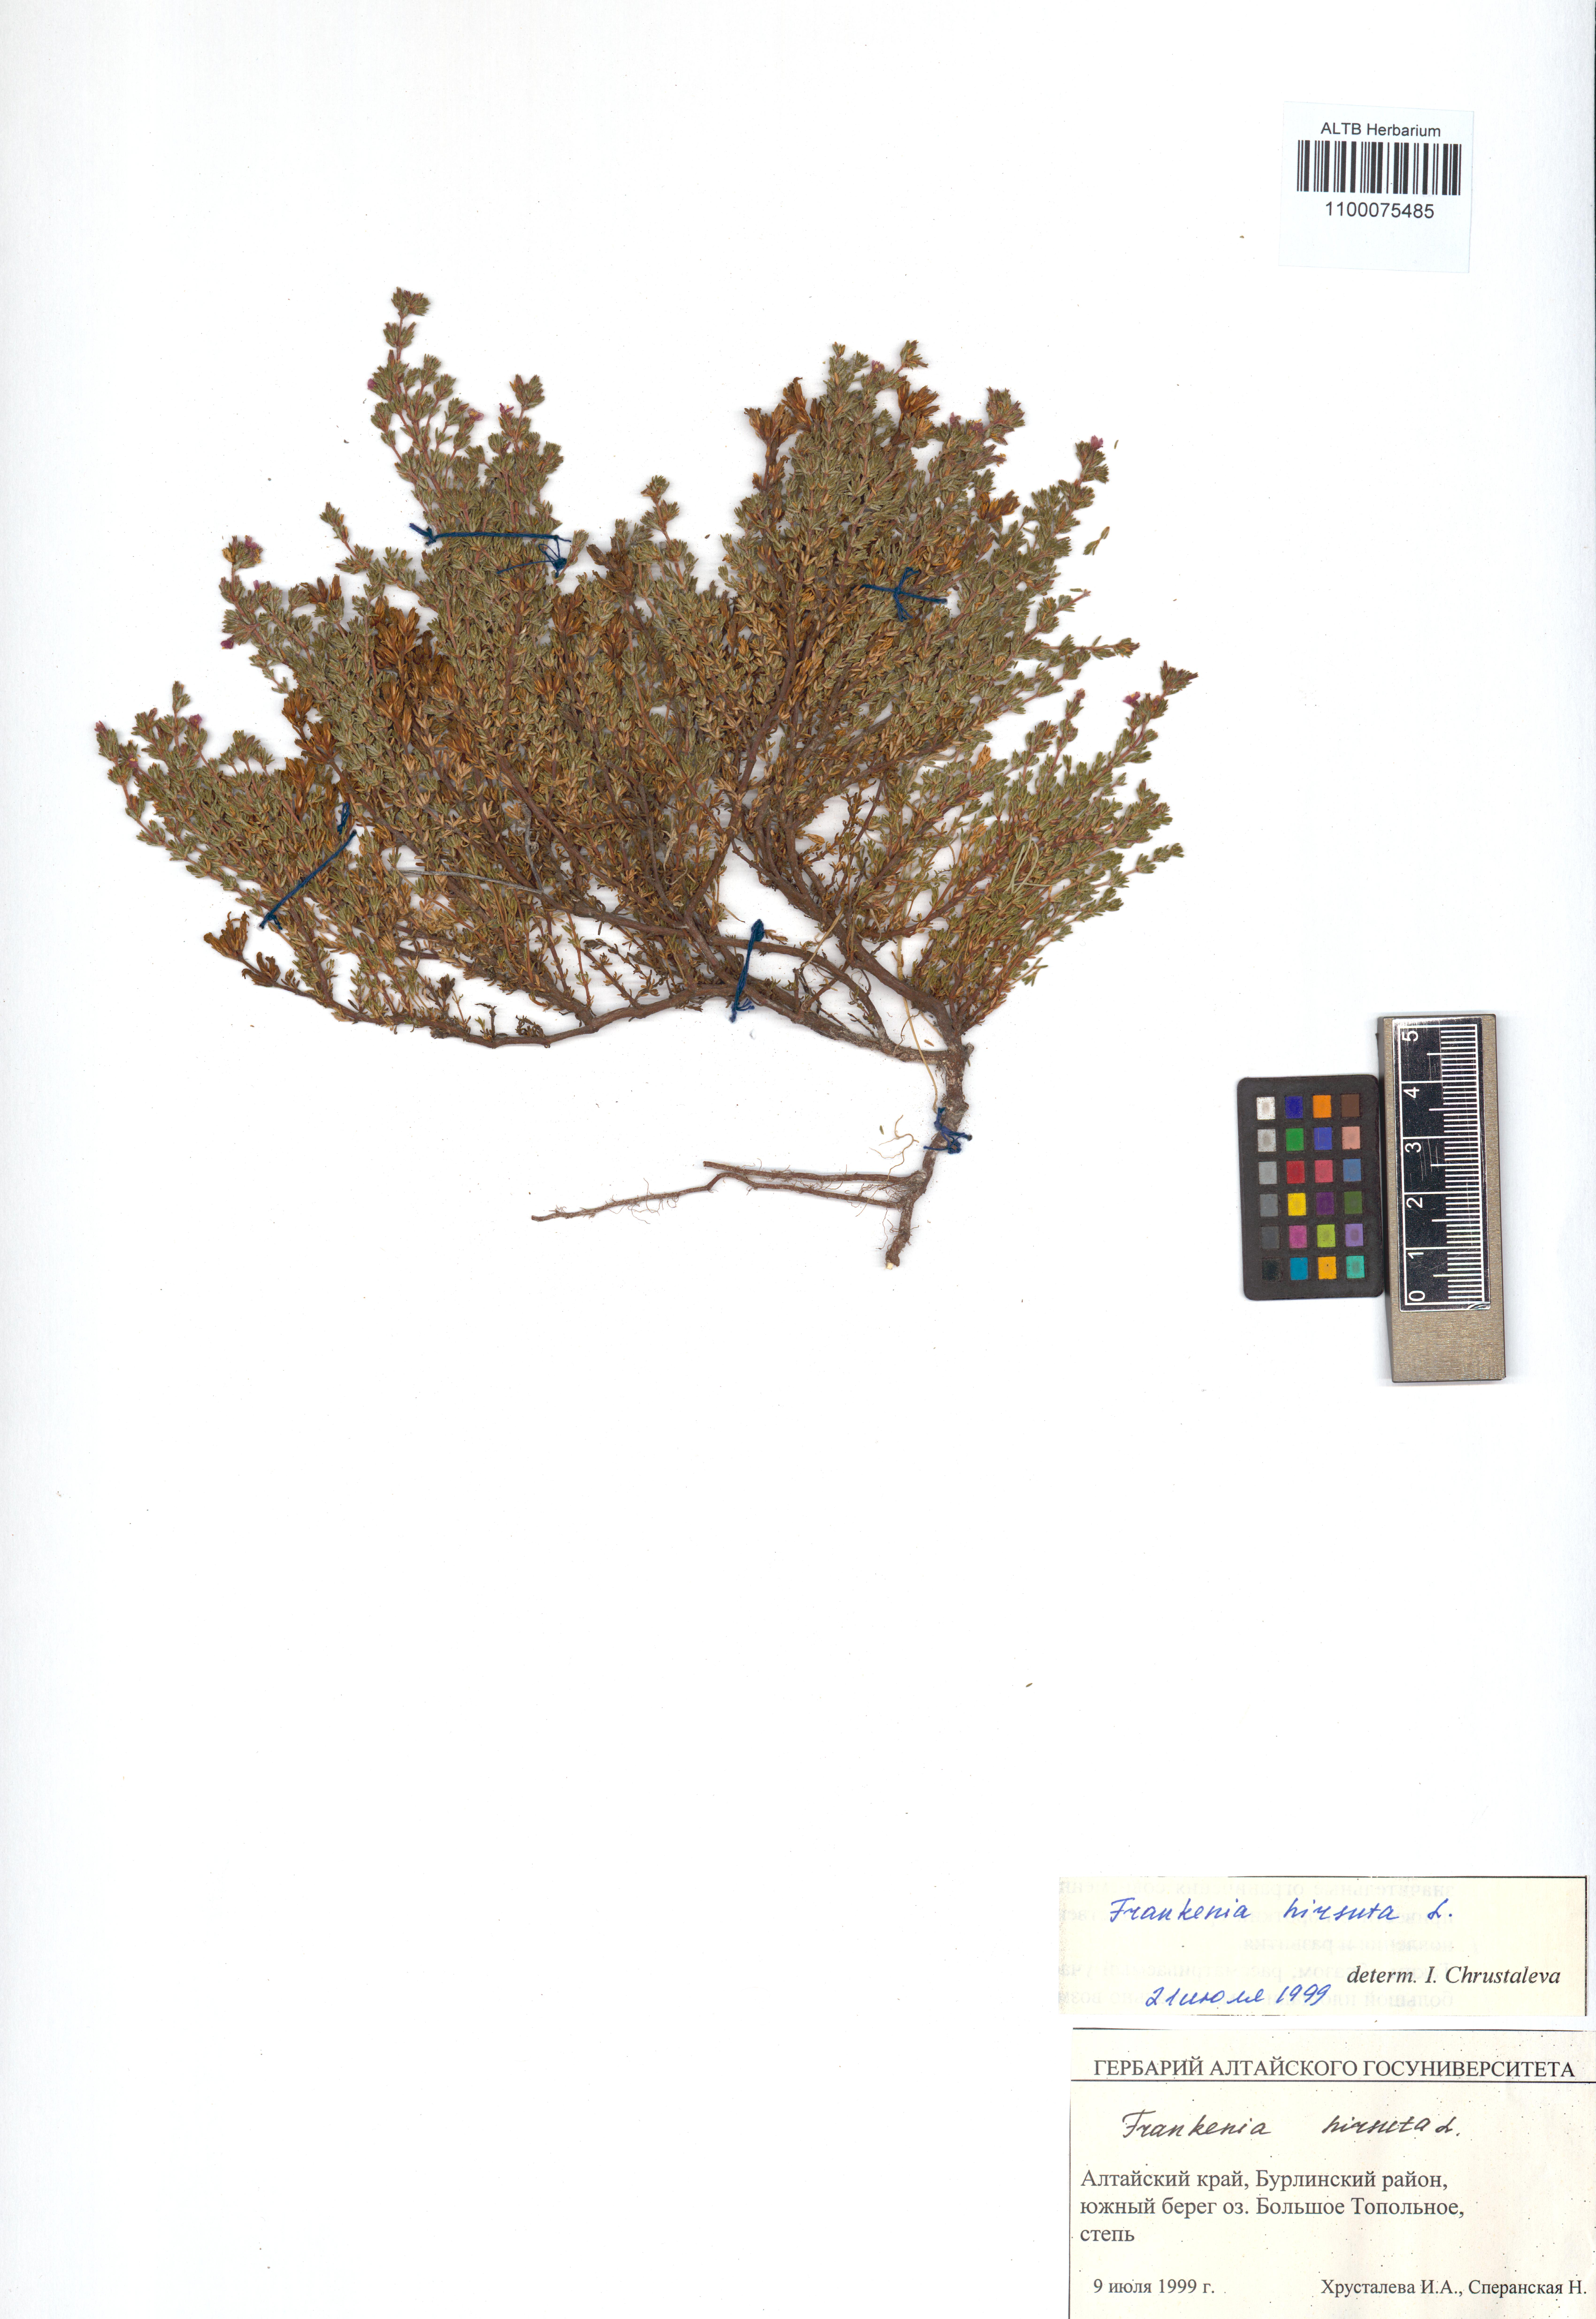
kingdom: Plantae
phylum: Tracheophyta
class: Magnoliopsida
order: Caryophyllales
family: Frankeniaceae
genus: Frankenia
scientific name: Frankenia hirsuta
